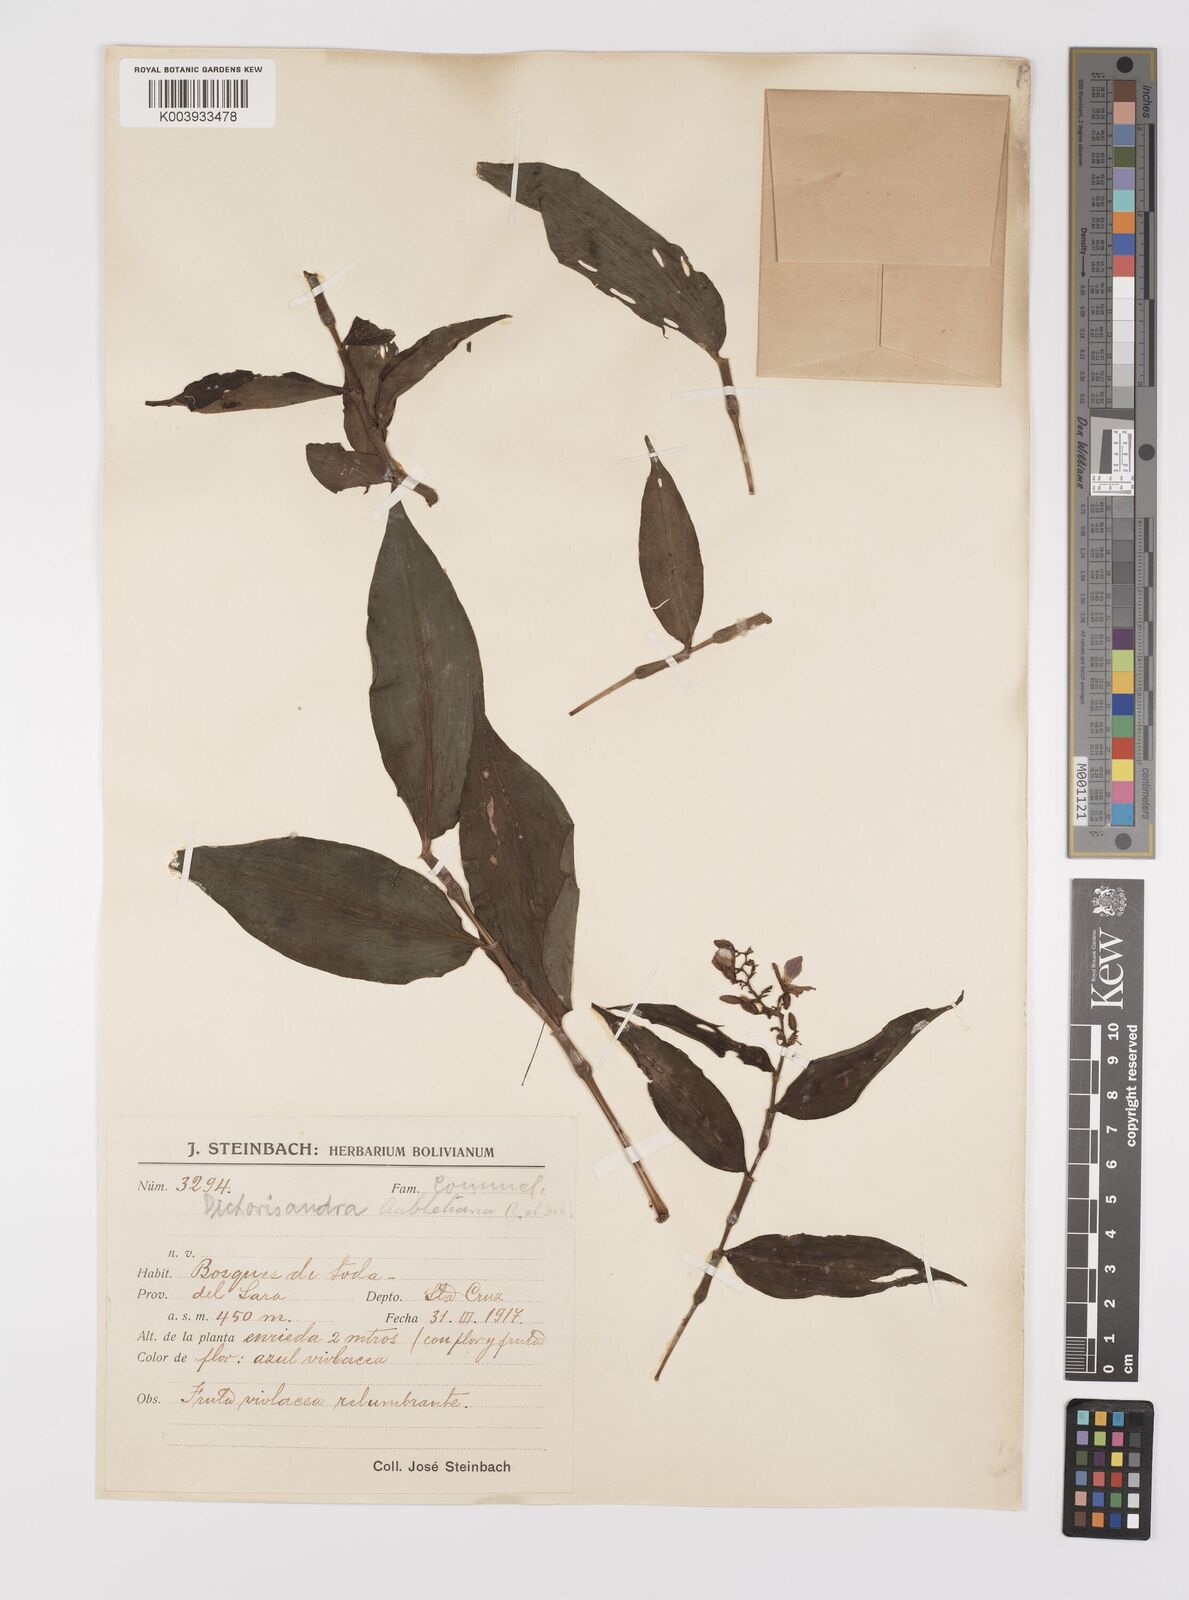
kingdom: Plantae
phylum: Tracheophyta
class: Liliopsida
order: Commelinales
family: Commelinaceae
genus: Dichorisandra
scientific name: Dichorisandra hexandra
